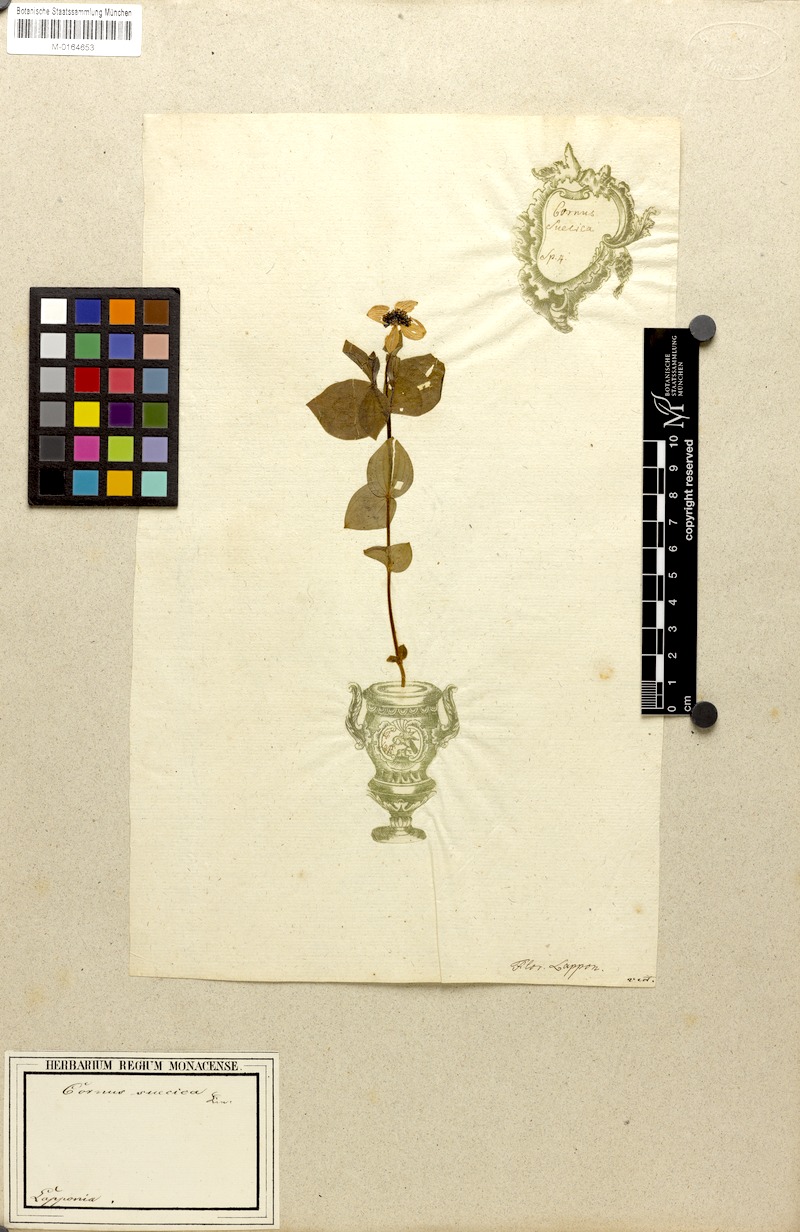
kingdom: Plantae
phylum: Tracheophyta
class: Magnoliopsida
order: Cornales
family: Cornaceae
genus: Cornus
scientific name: Cornus suecica
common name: Dwarf cornel
